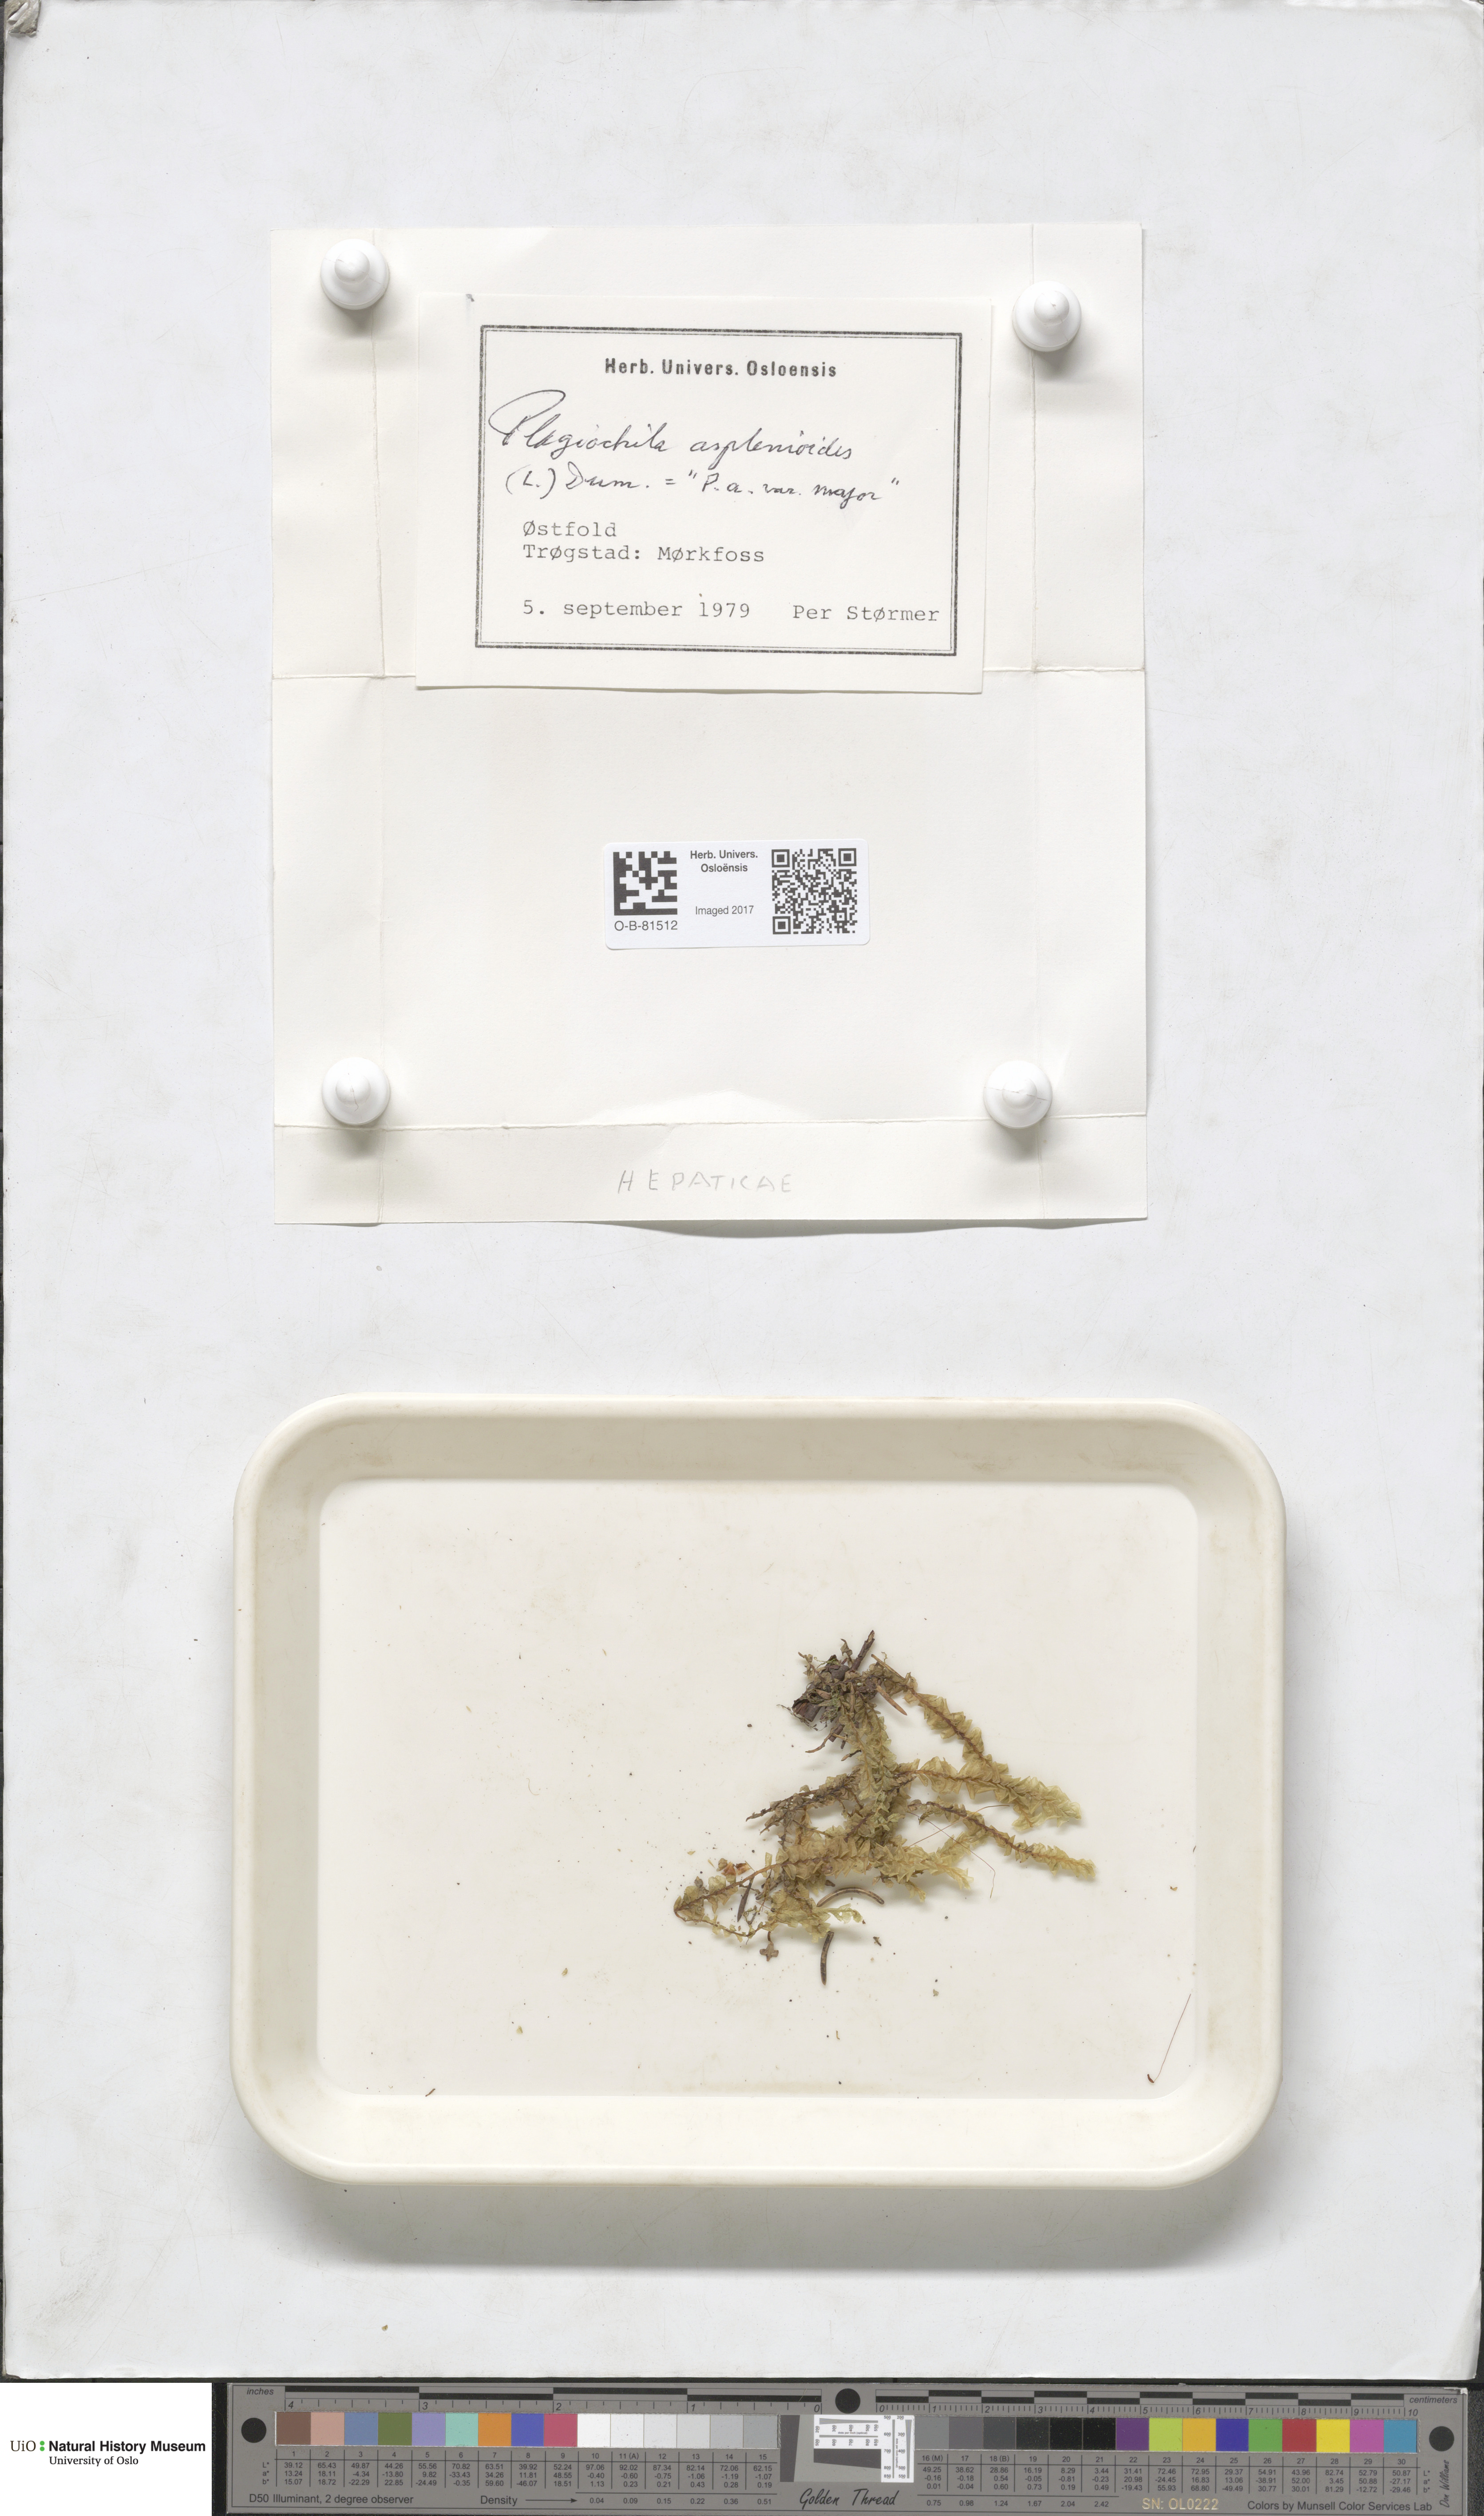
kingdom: Plantae
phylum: Marchantiophyta
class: Jungermanniopsida
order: Jungermanniales
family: Plagiochilaceae
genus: Plagiochila
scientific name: Plagiochila asplenioides
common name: Greater featherwort
